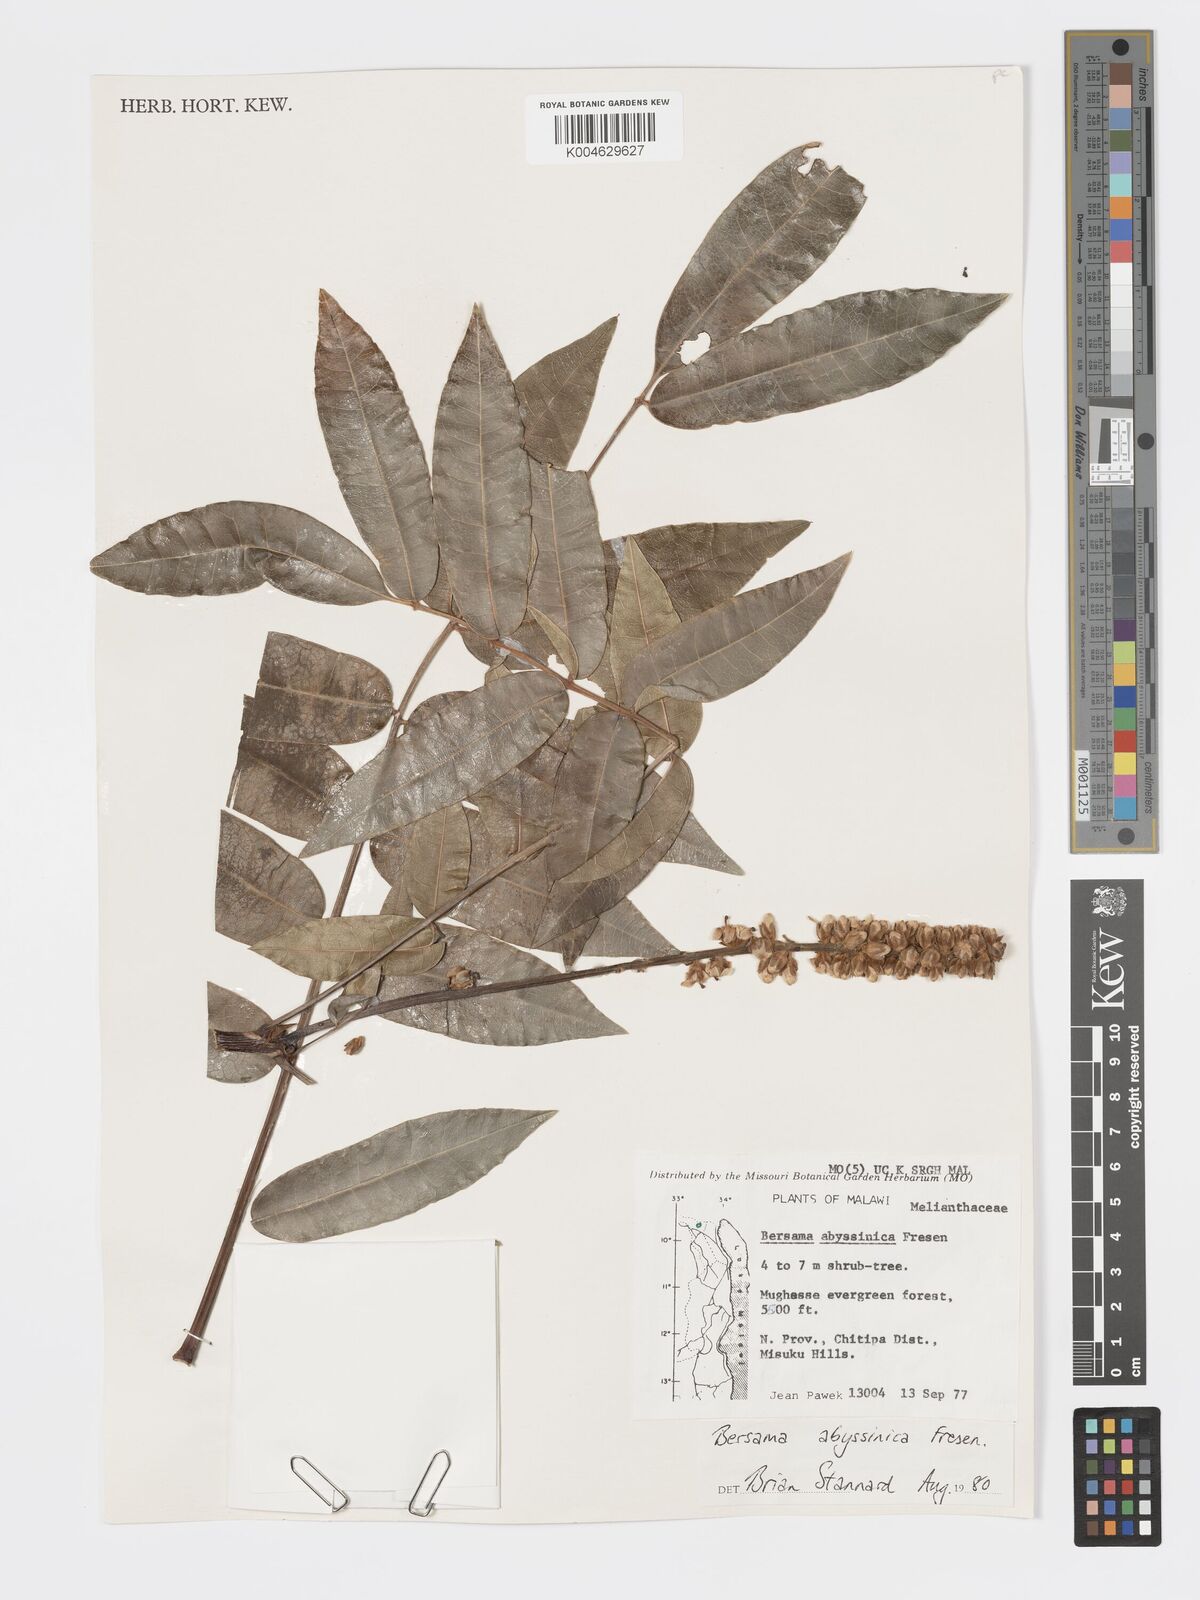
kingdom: Plantae
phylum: Tracheophyta
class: Magnoliopsida
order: Geraniales
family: Melianthaceae
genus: Bersama
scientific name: Bersama abyssinica
